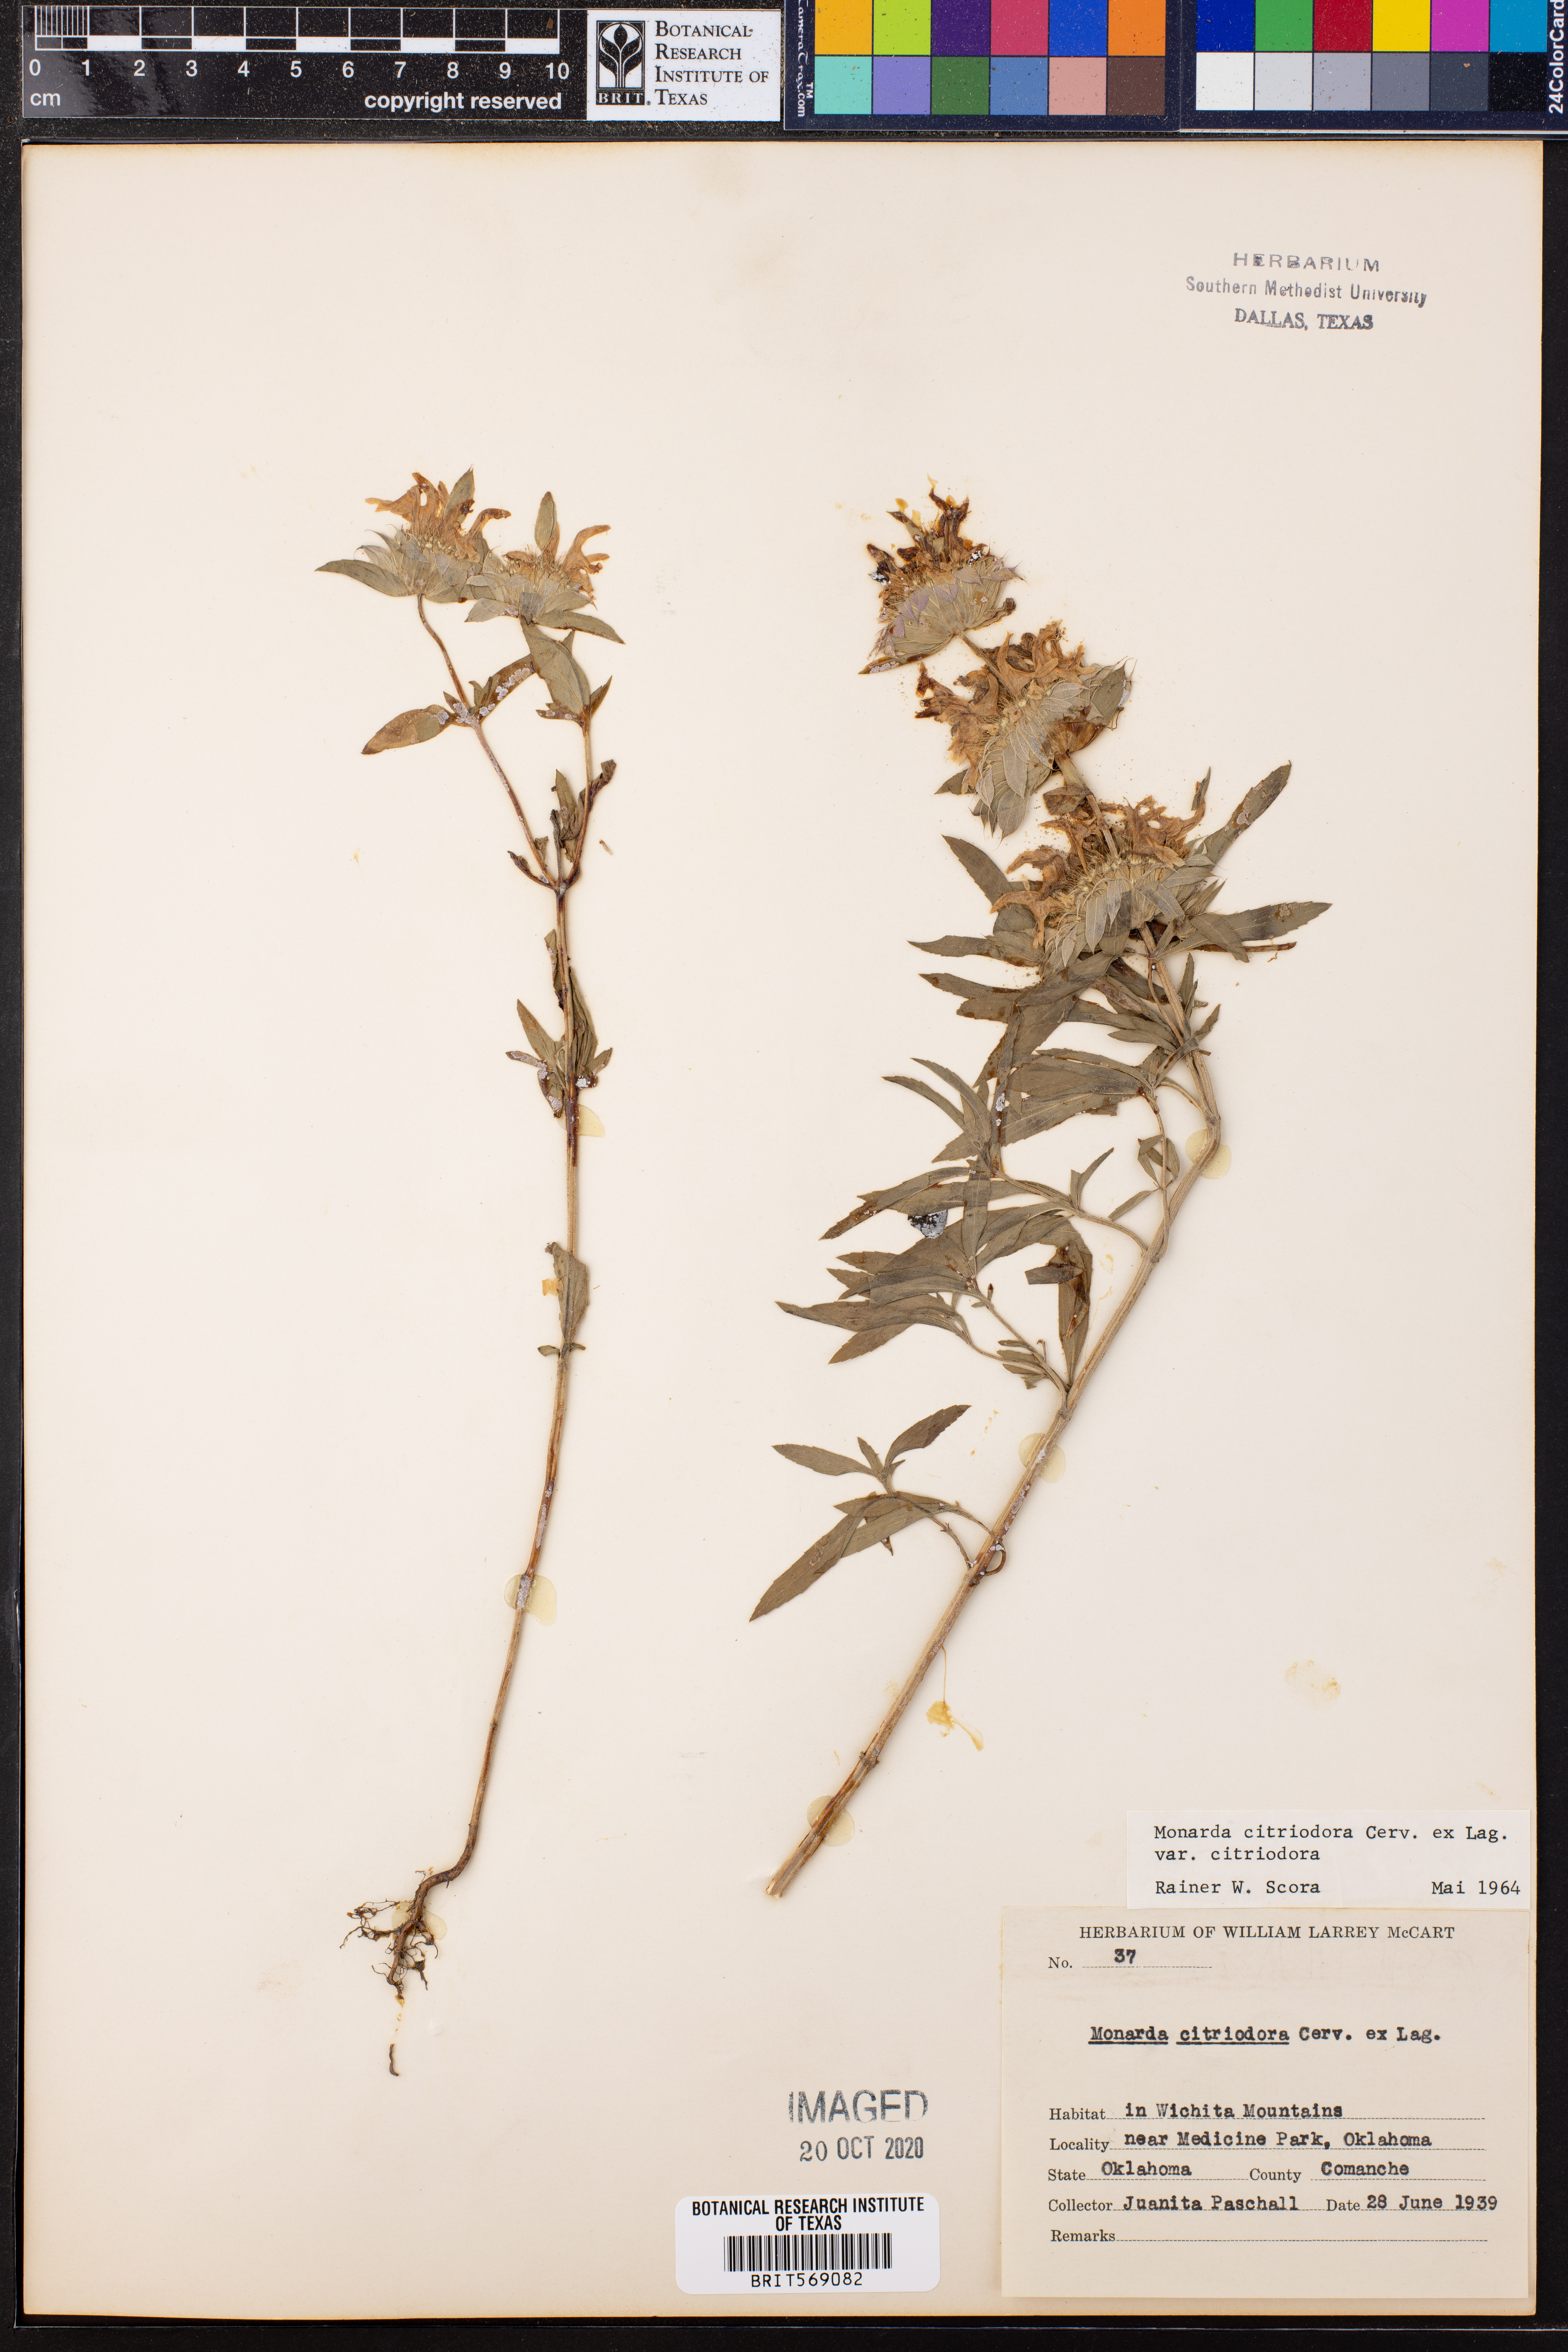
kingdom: Plantae
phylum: Tracheophyta
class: Magnoliopsida
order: Lamiales
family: Lamiaceae
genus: Monarda
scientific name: Monarda citriodora
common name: Lemon beebalm
